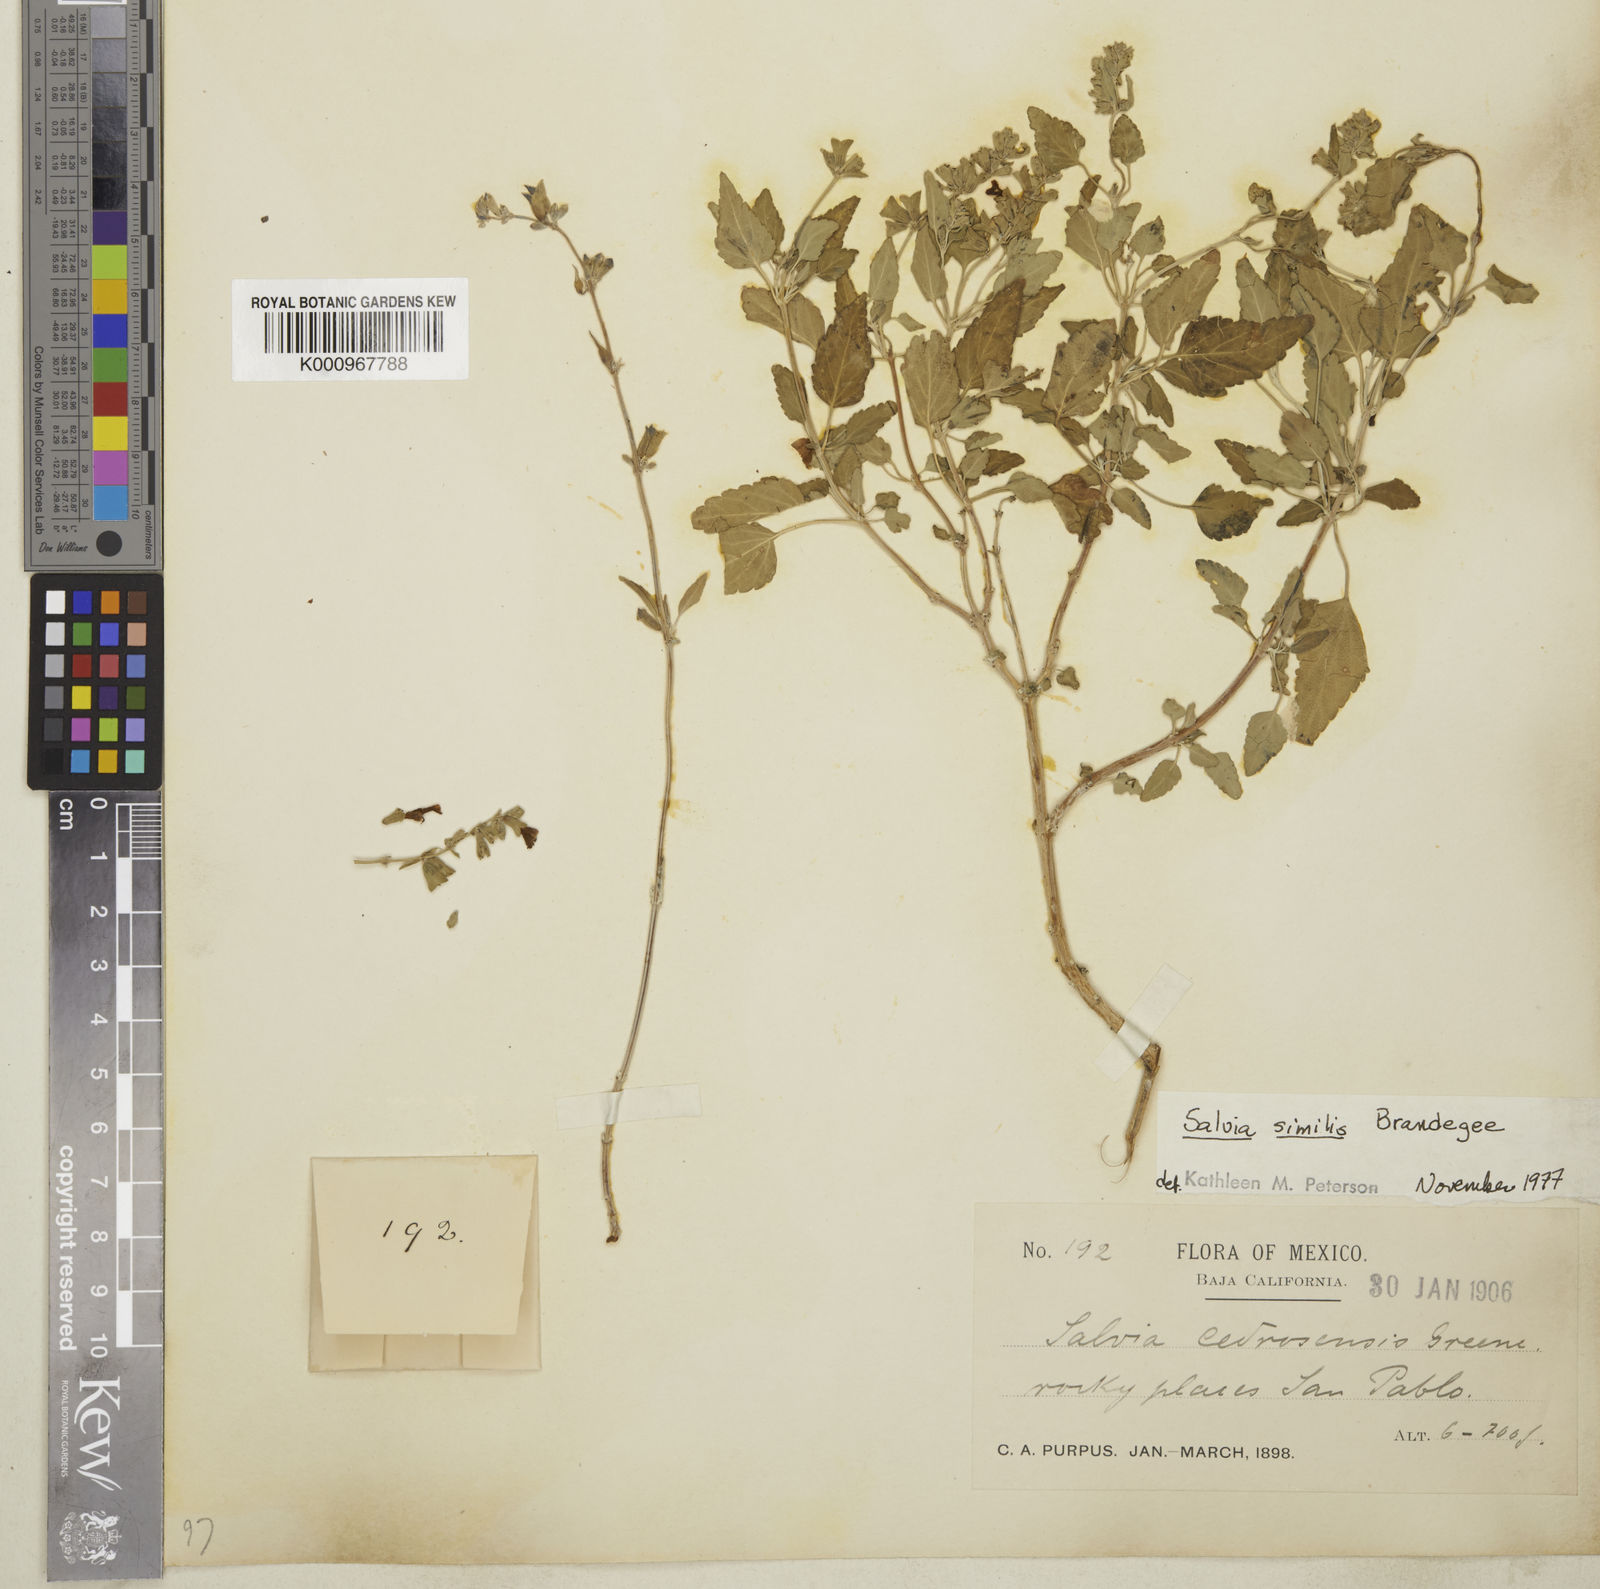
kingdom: Plantae
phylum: Tracheophyta
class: Magnoliopsida
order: Lamiales
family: Lamiaceae
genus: Salvia
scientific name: Salvia similis
